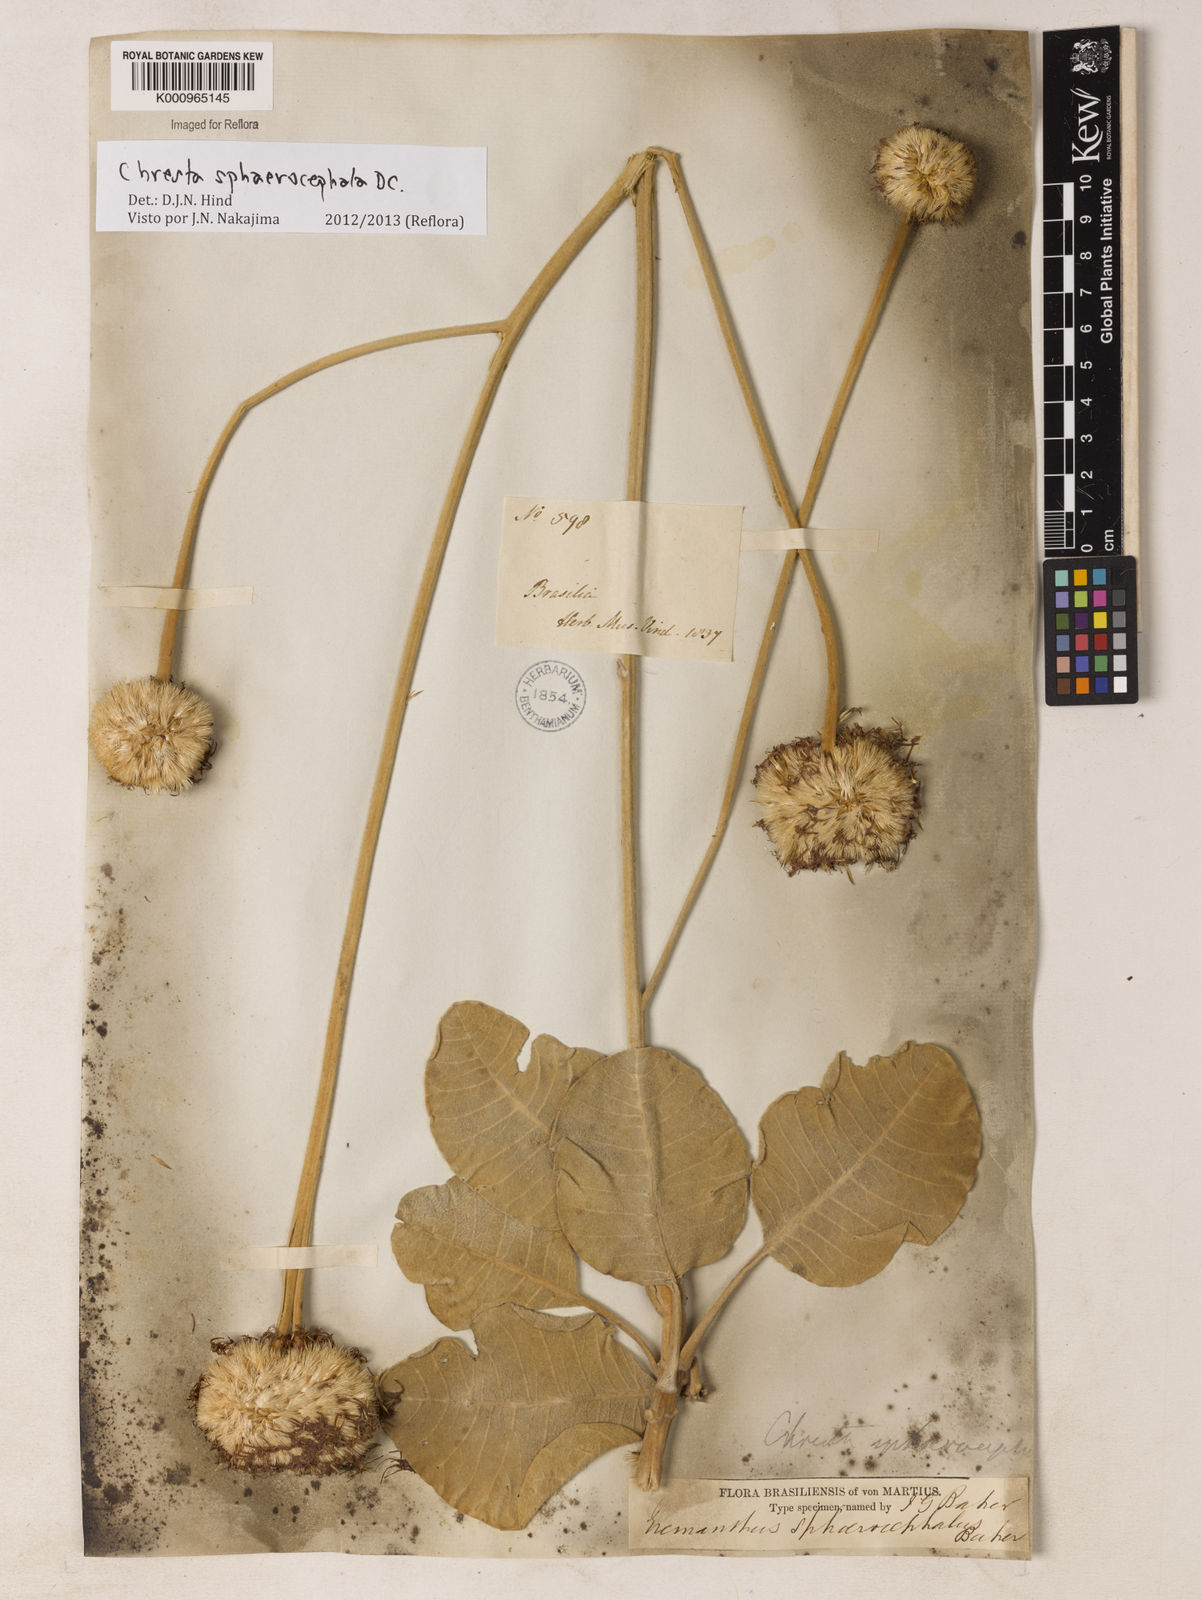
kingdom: Plantae
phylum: Tracheophyta
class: Magnoliopsida
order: Asterales
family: Asteraceae
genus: Chresta
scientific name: Chresta sphaerocephala
